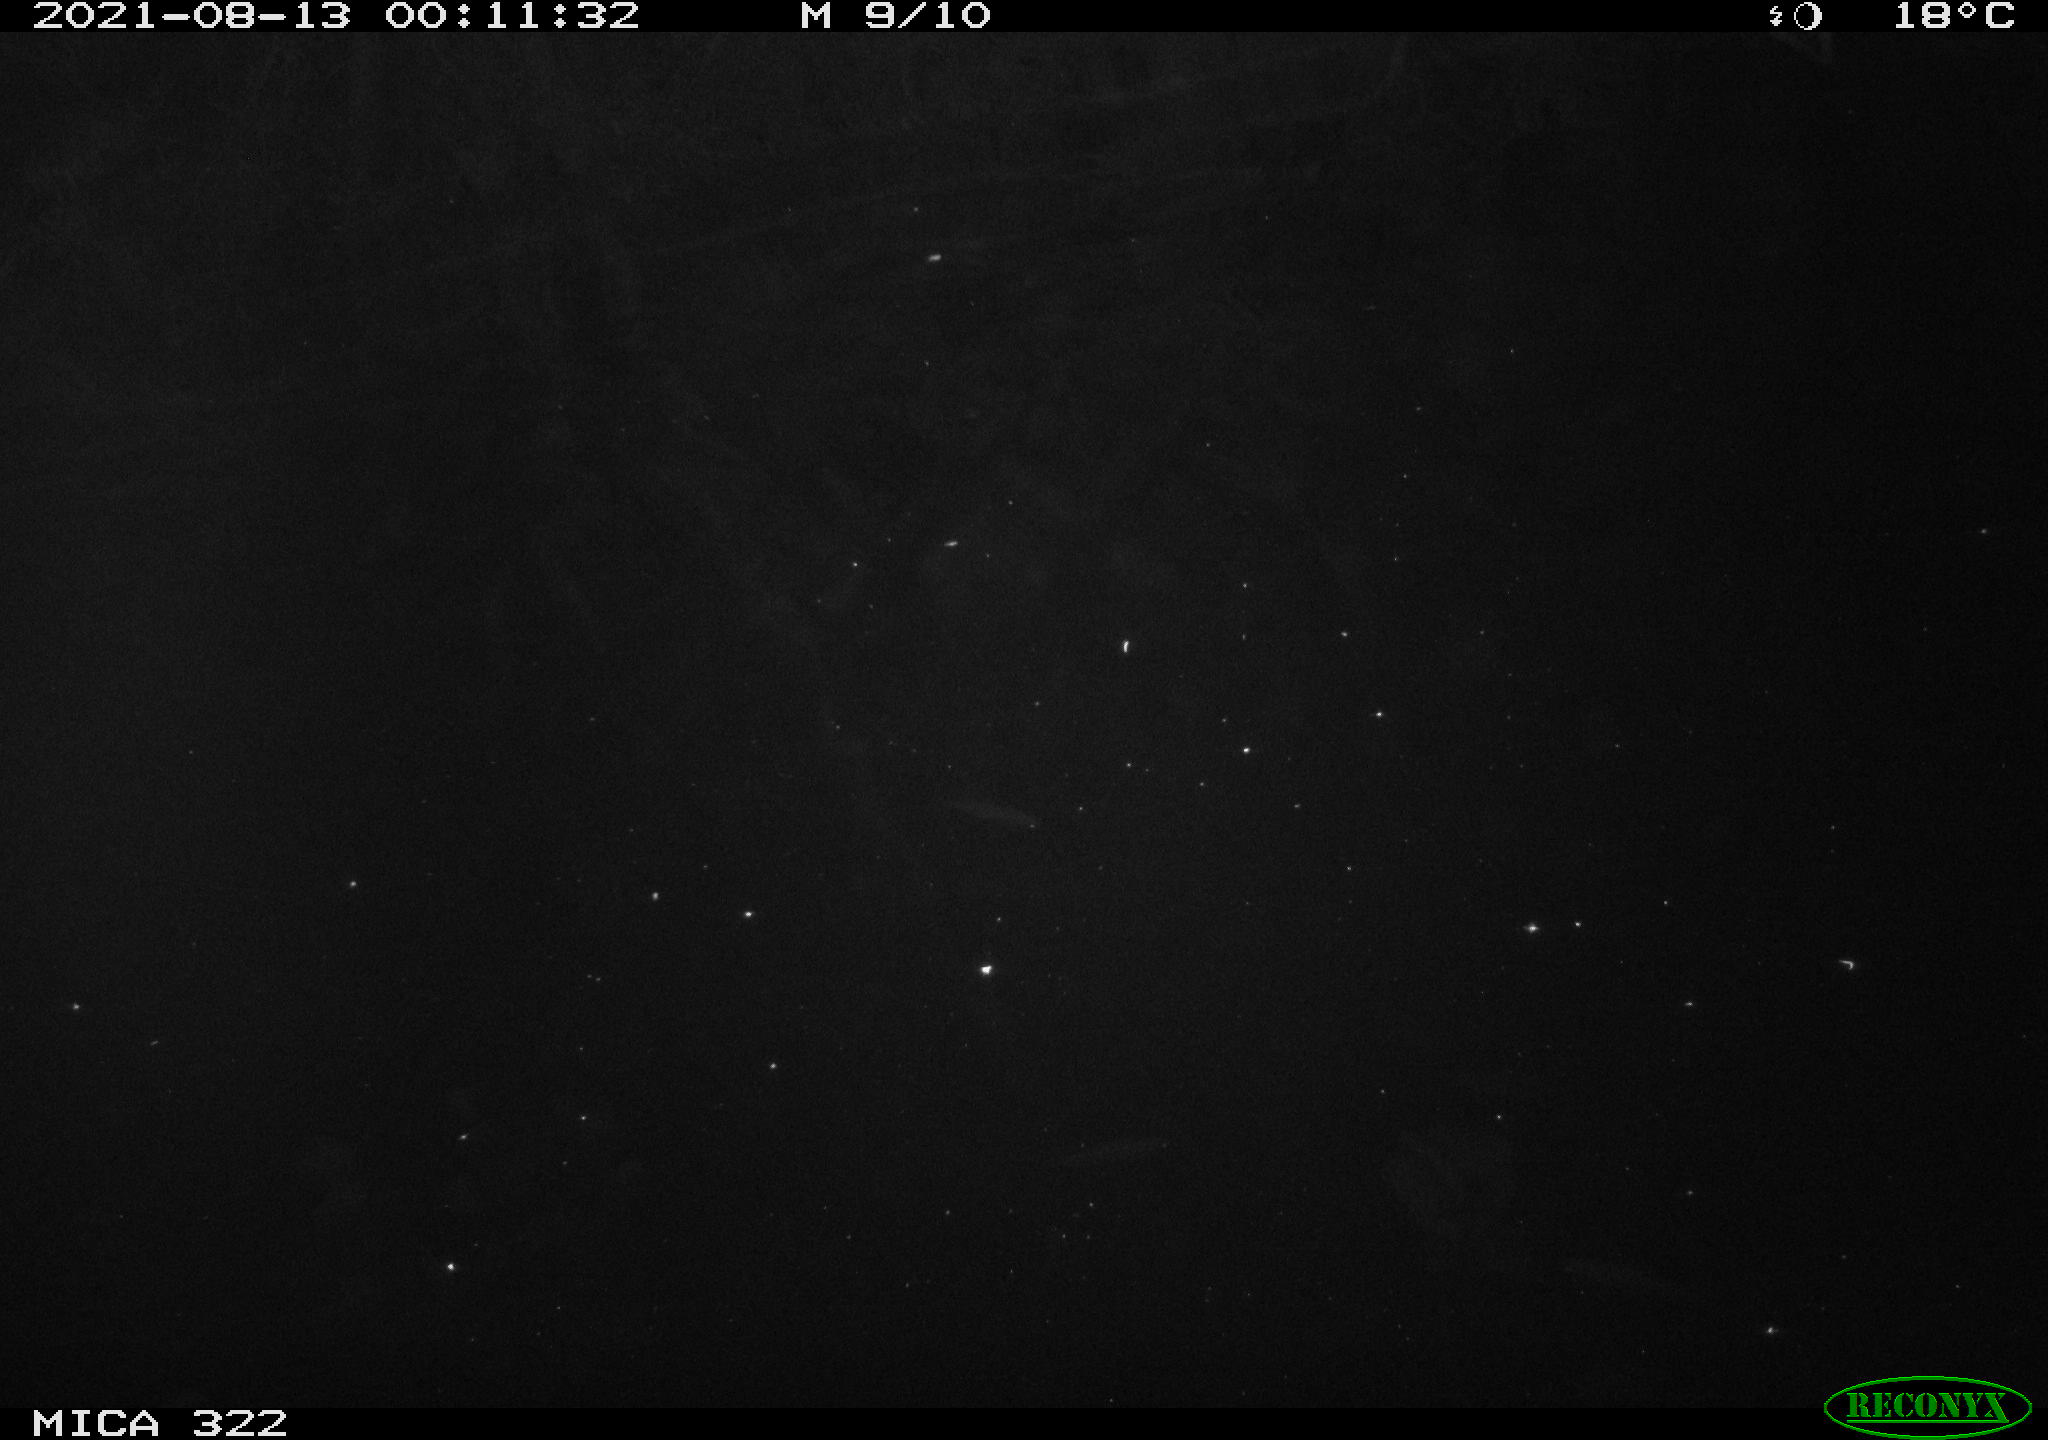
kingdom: Animalia
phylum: Chordata
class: Mammalia
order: Rodentia
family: Muridae
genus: Rattus
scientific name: Rattus norvegicus
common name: Brown rat
